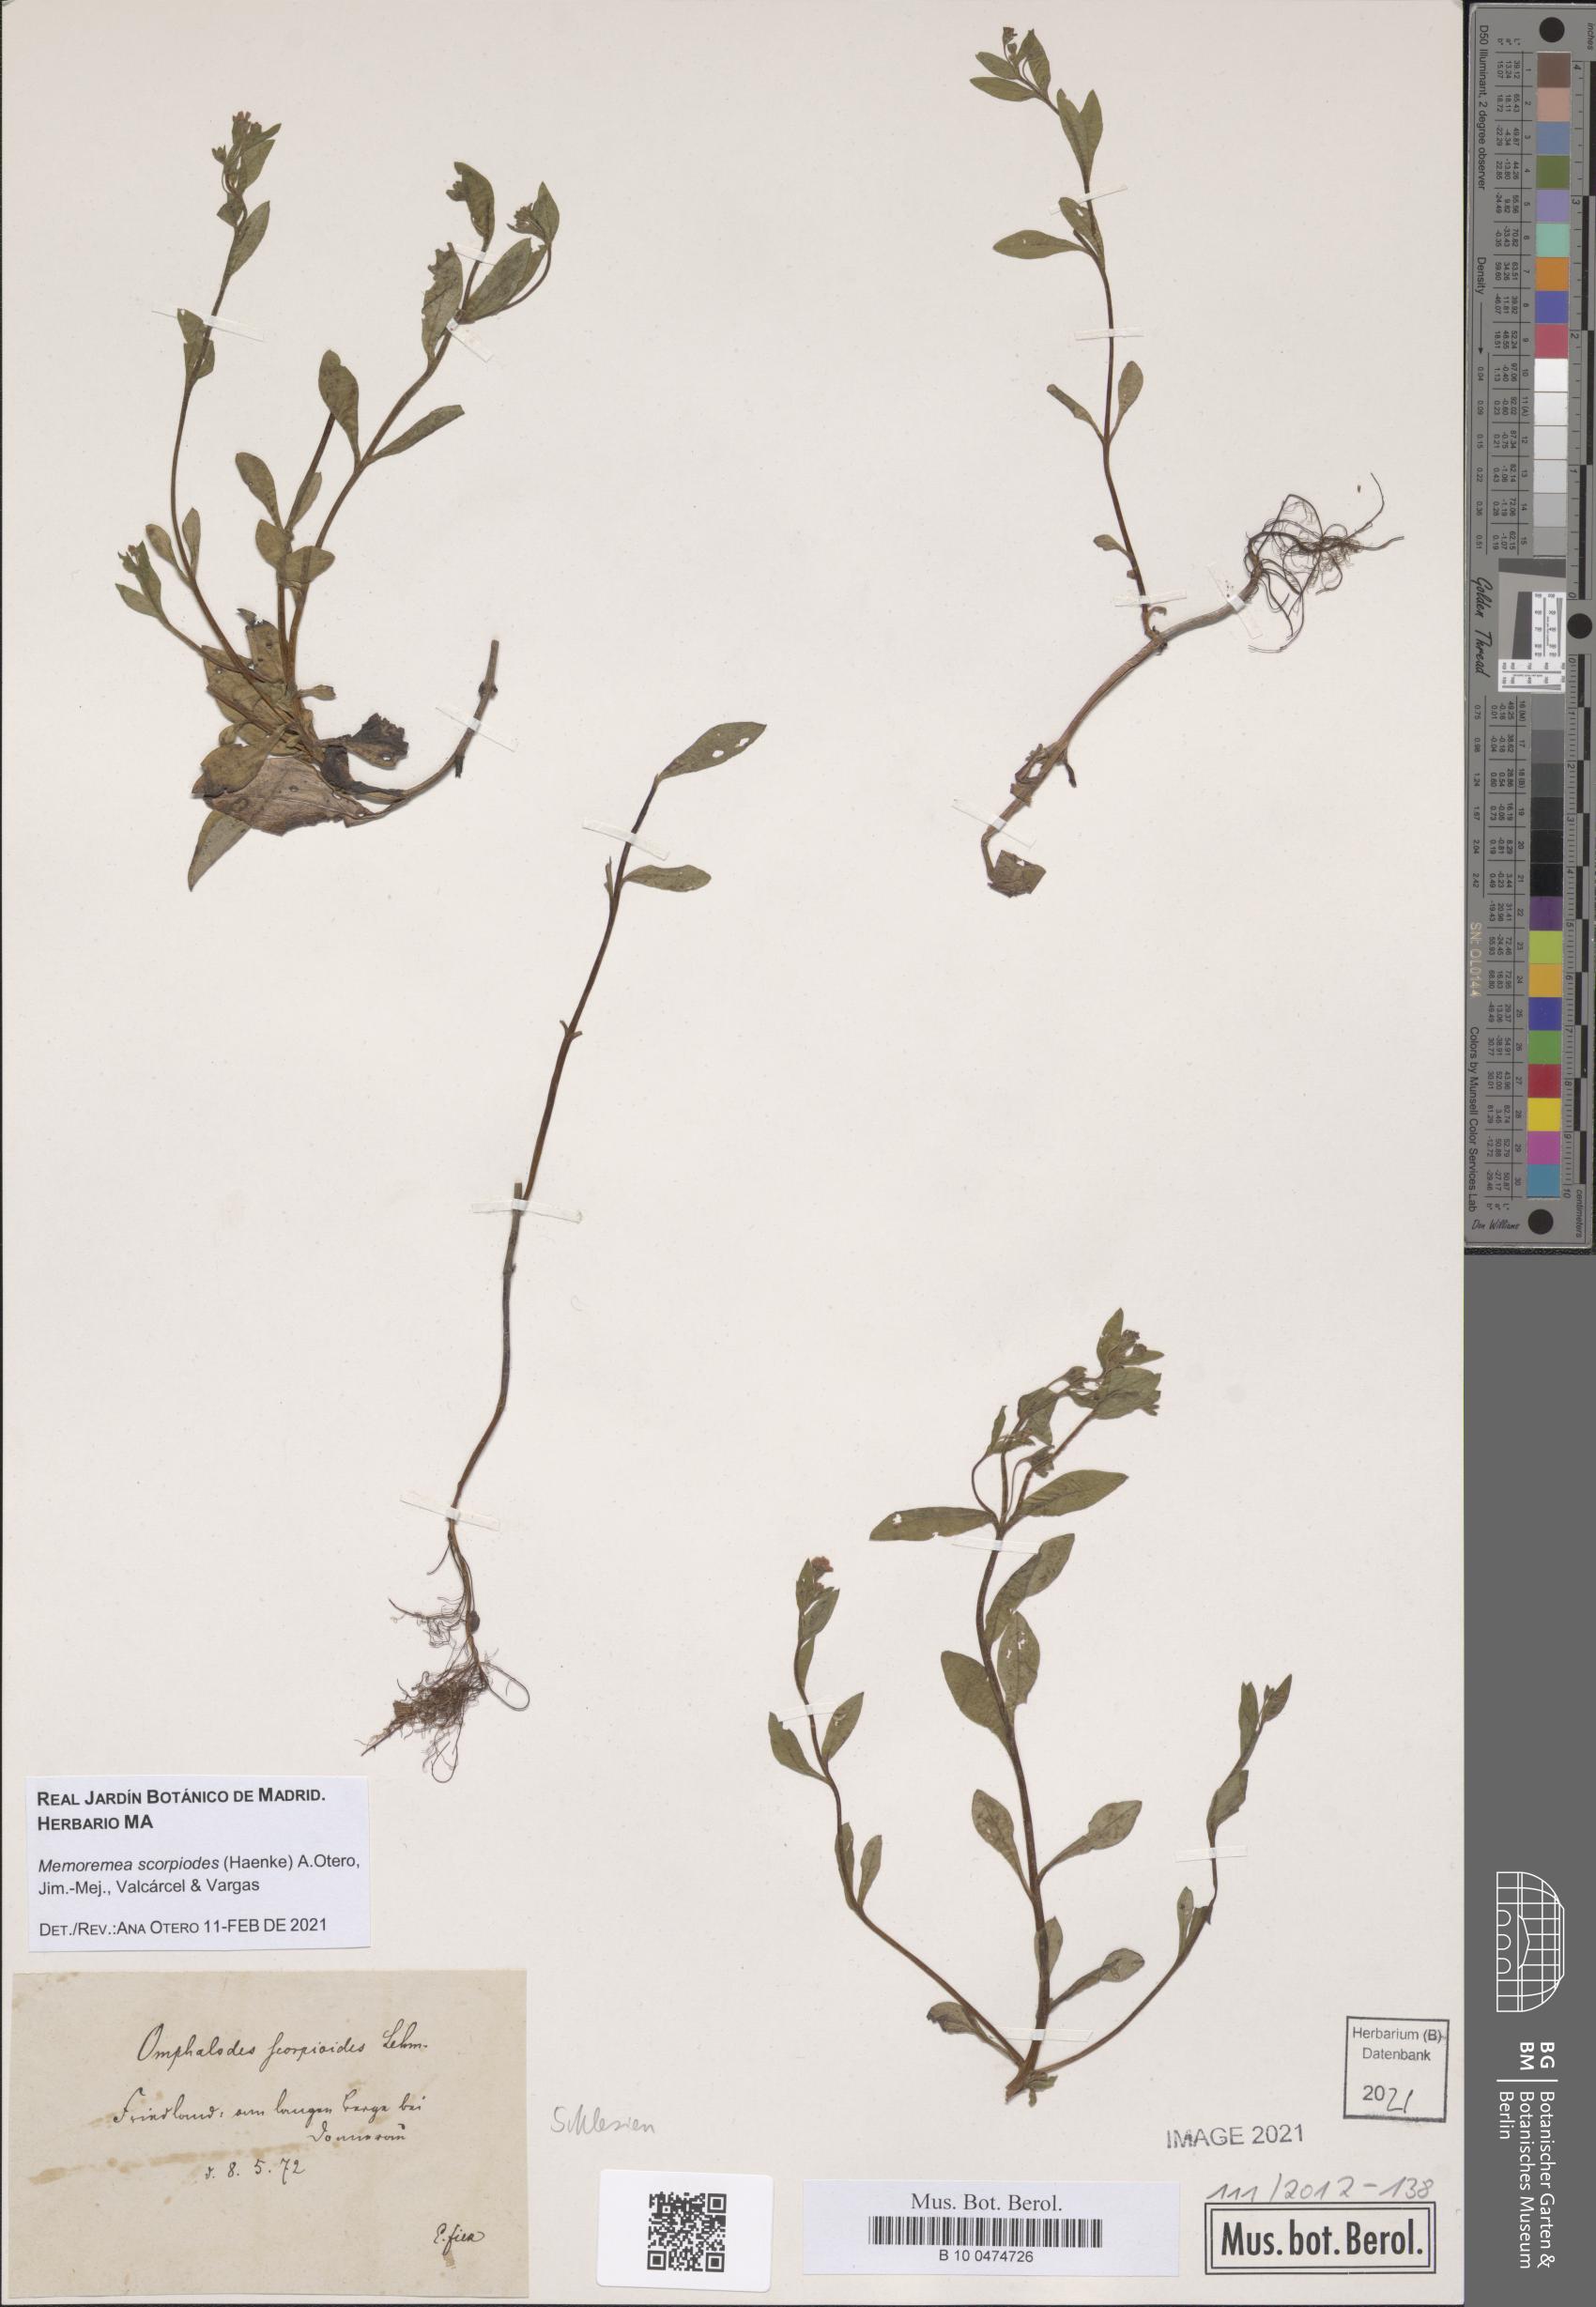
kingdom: Plantae
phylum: Tracheophyta
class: Magnoliopsida
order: Boraginales
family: Boraginaceae
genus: Memoremea
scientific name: Memoremea scorpioides
